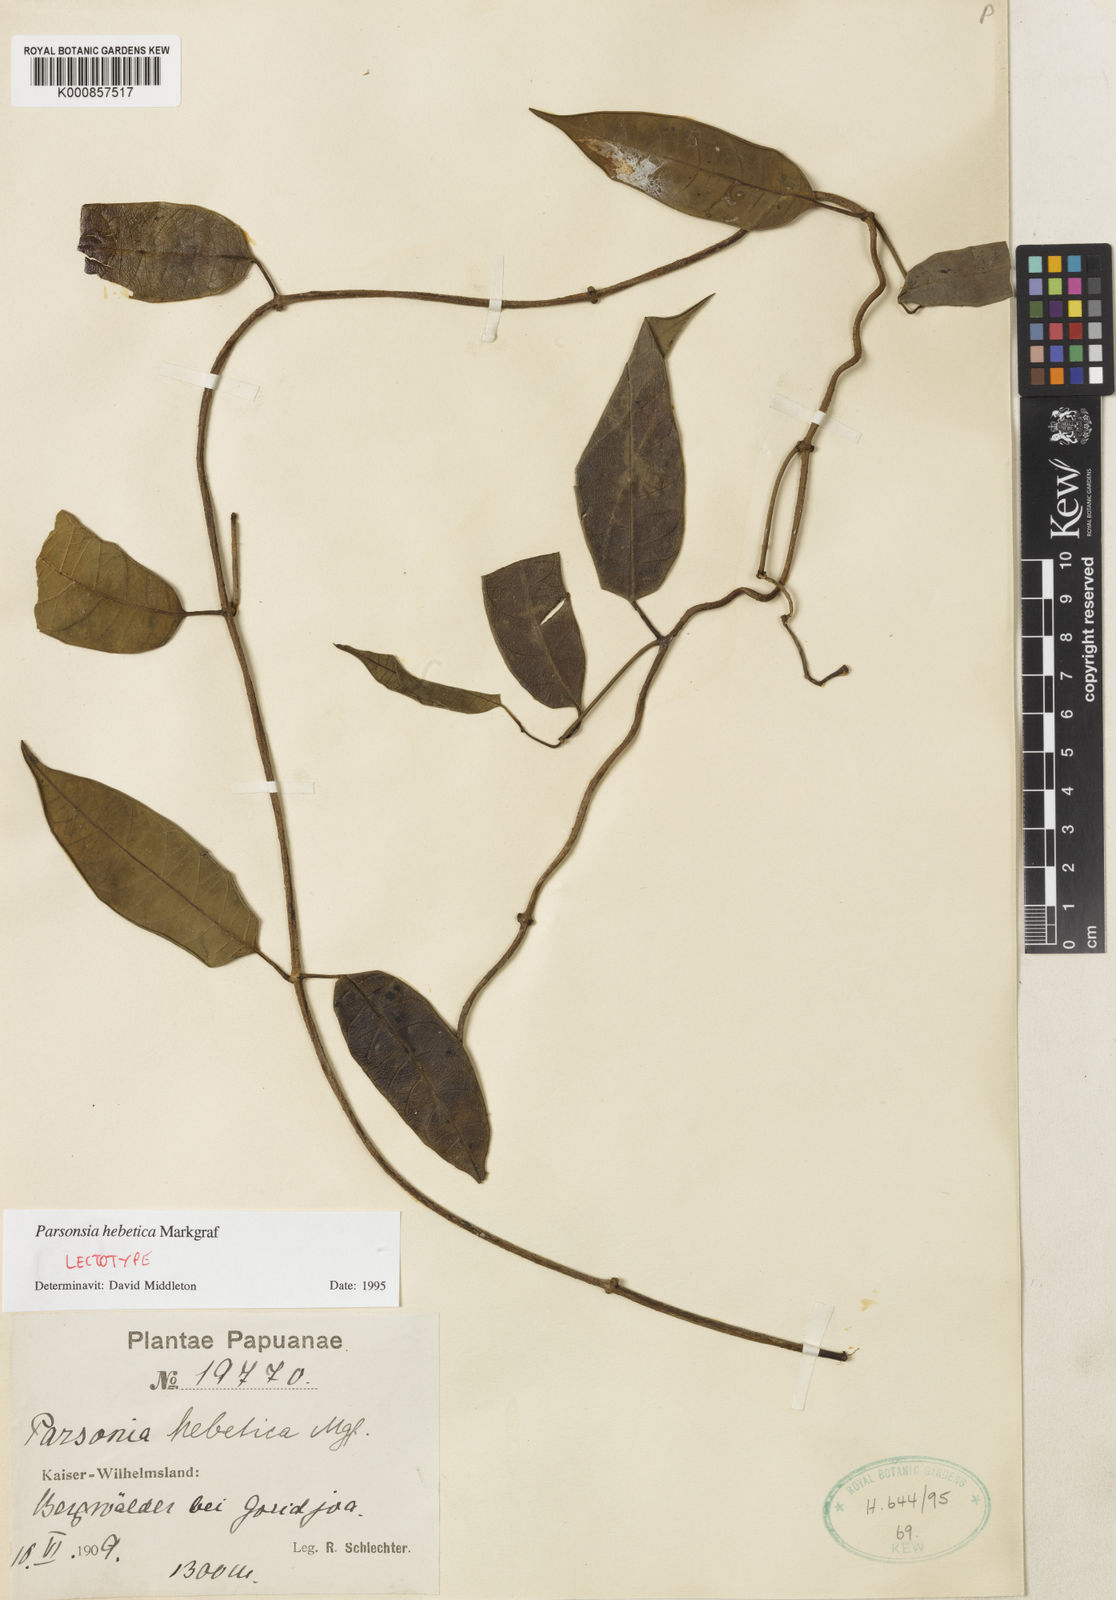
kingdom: Plantae
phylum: Tracheophyta
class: Magnoliopsida
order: Gentianales
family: Apocynaceae
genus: Parsonsia
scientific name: Parsonsia hebetica
